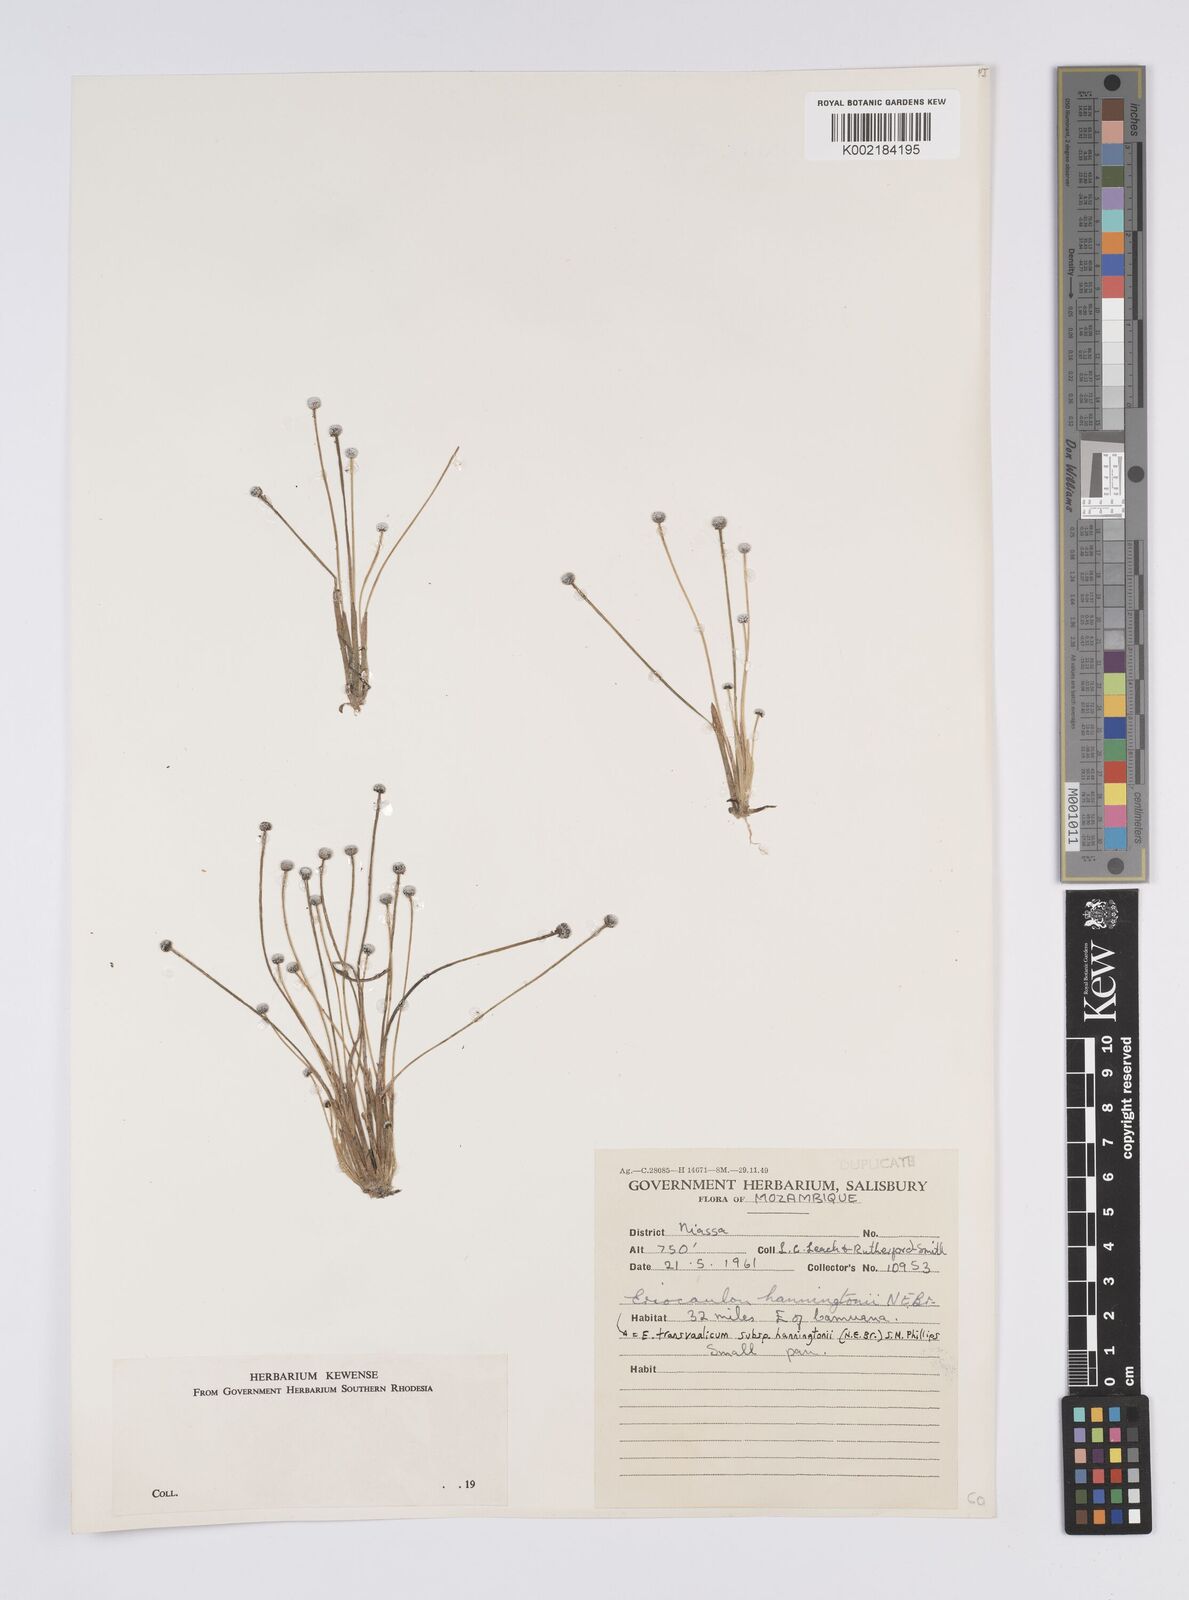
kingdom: Plantae
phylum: Tracheophyta
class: Liliopsida
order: Poales
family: Eriocaulaceae
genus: Eriocaulon
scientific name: Eriocaulon transvaalicum
